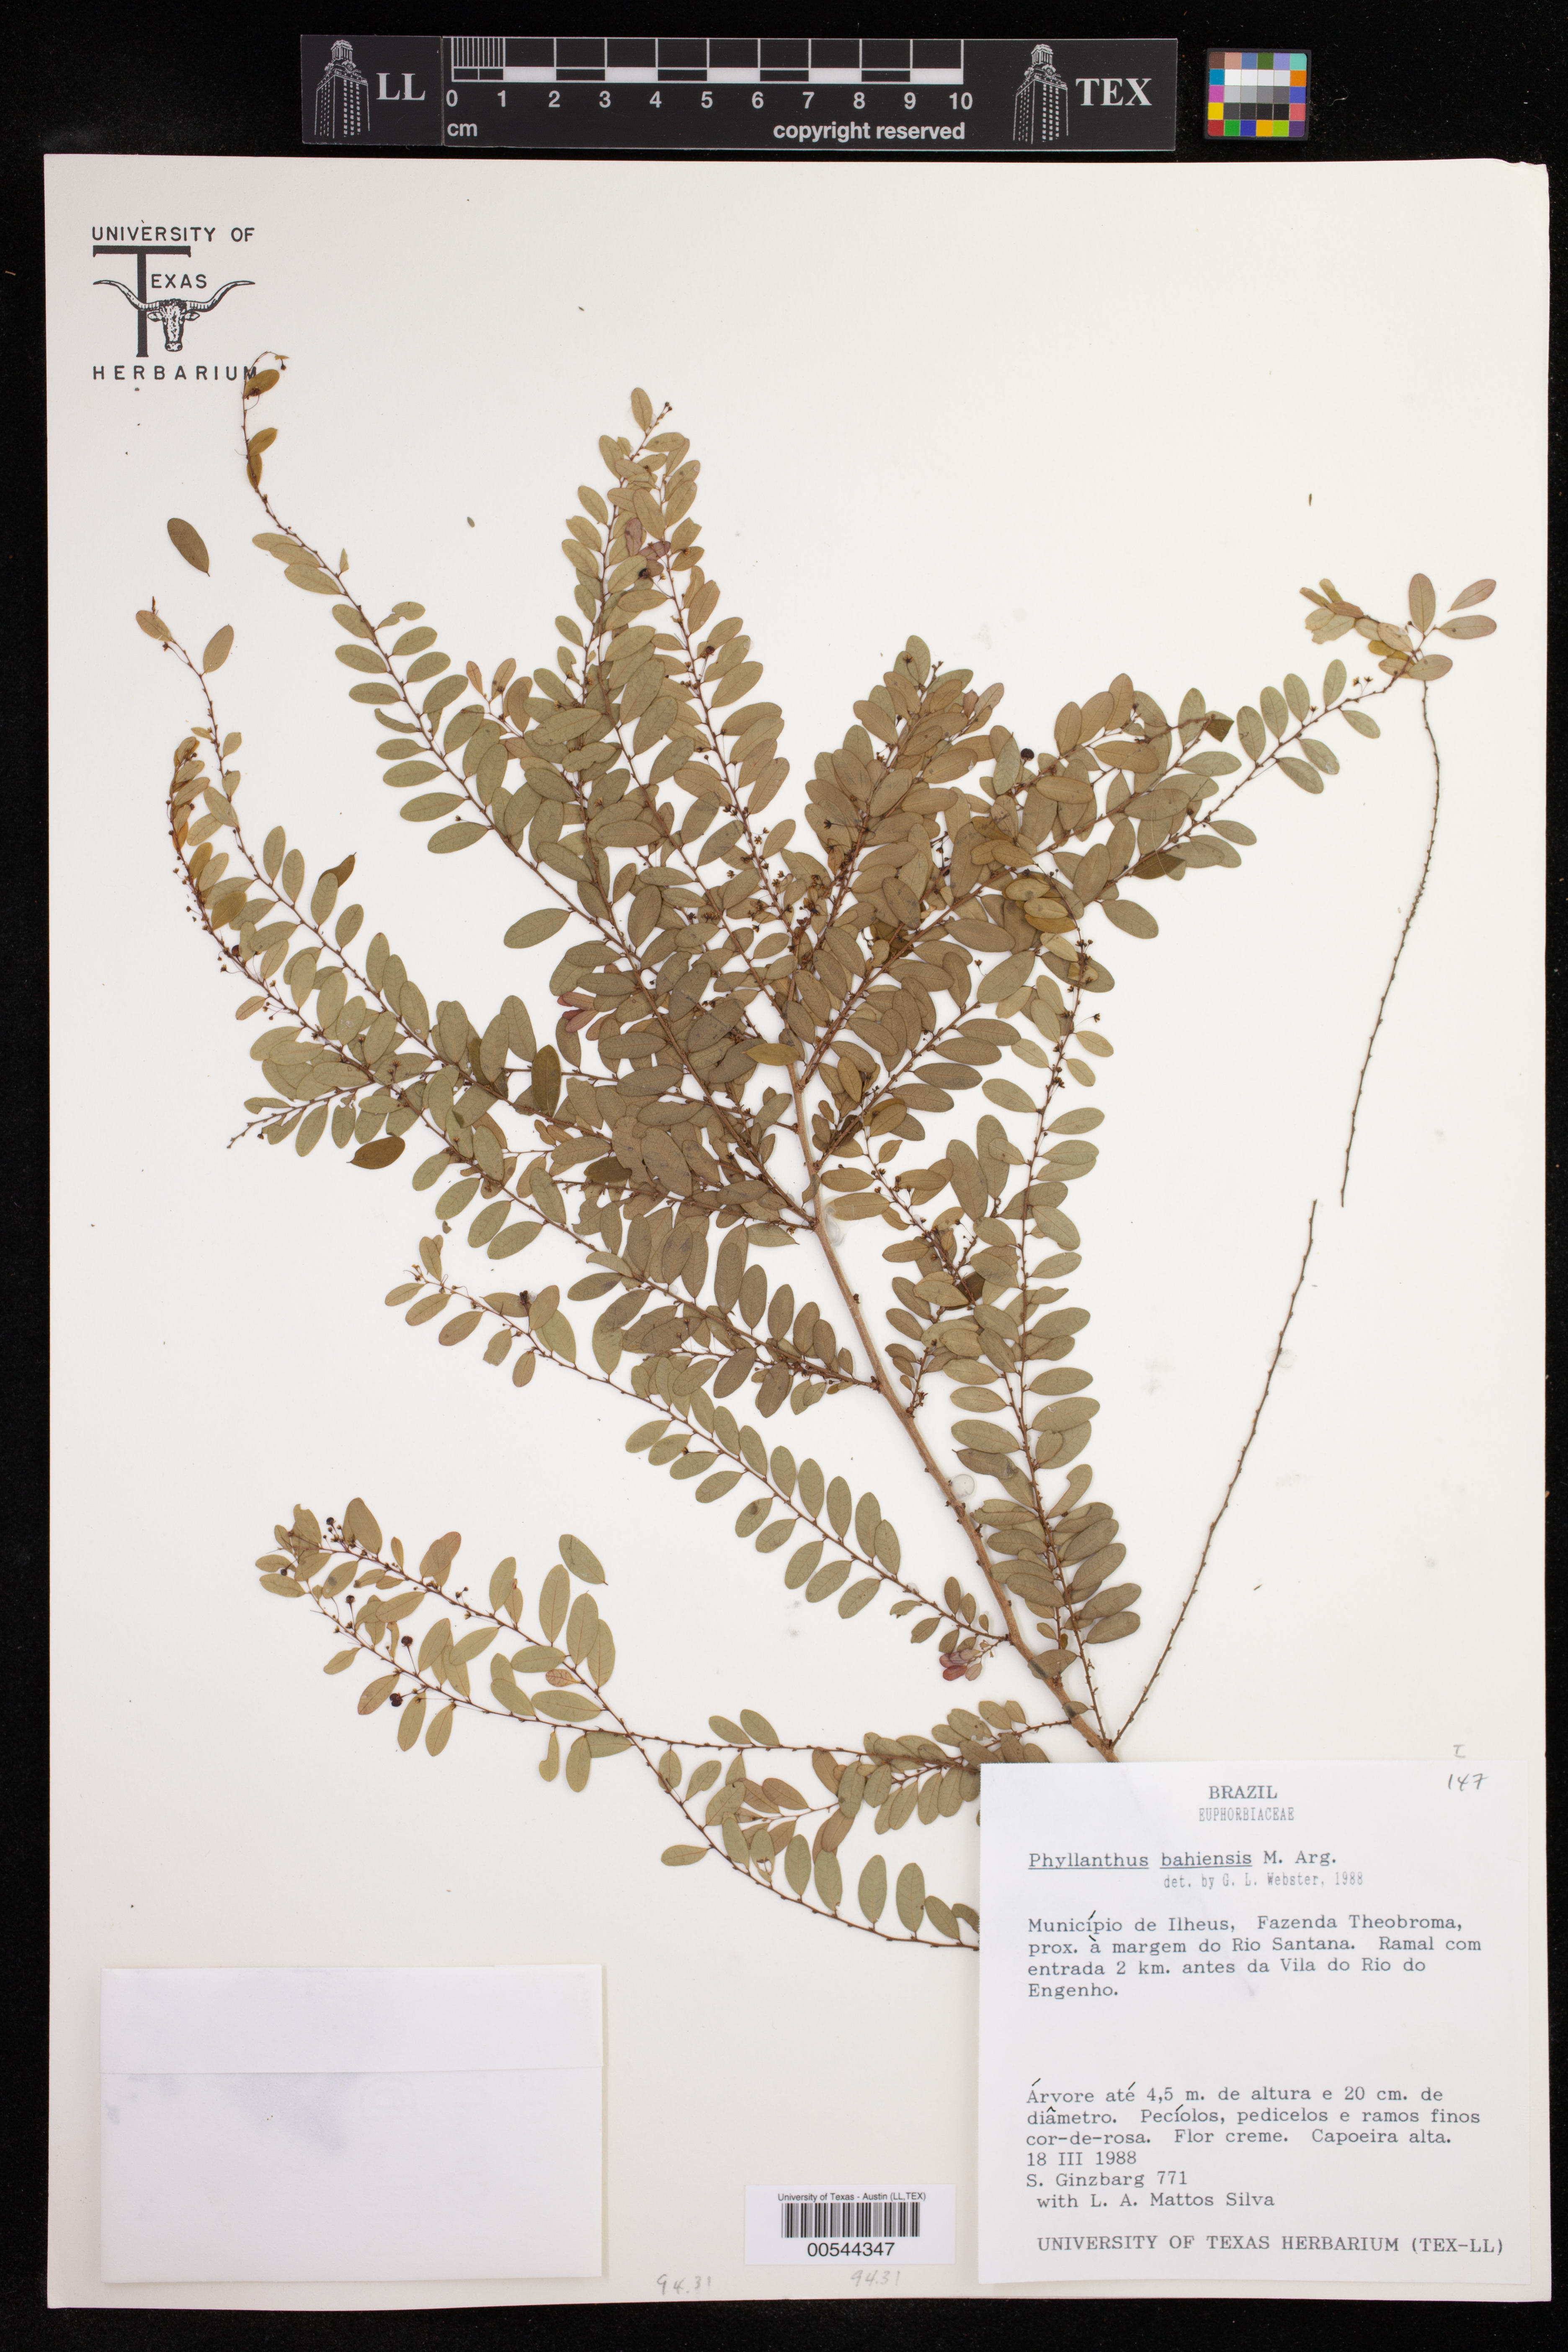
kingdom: Plantae
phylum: Tracheophyta
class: Magnoliopsida
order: Malpighiales
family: Phyllanthaceae
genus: Phyllanthus
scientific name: Phyllanthus bahiensis
